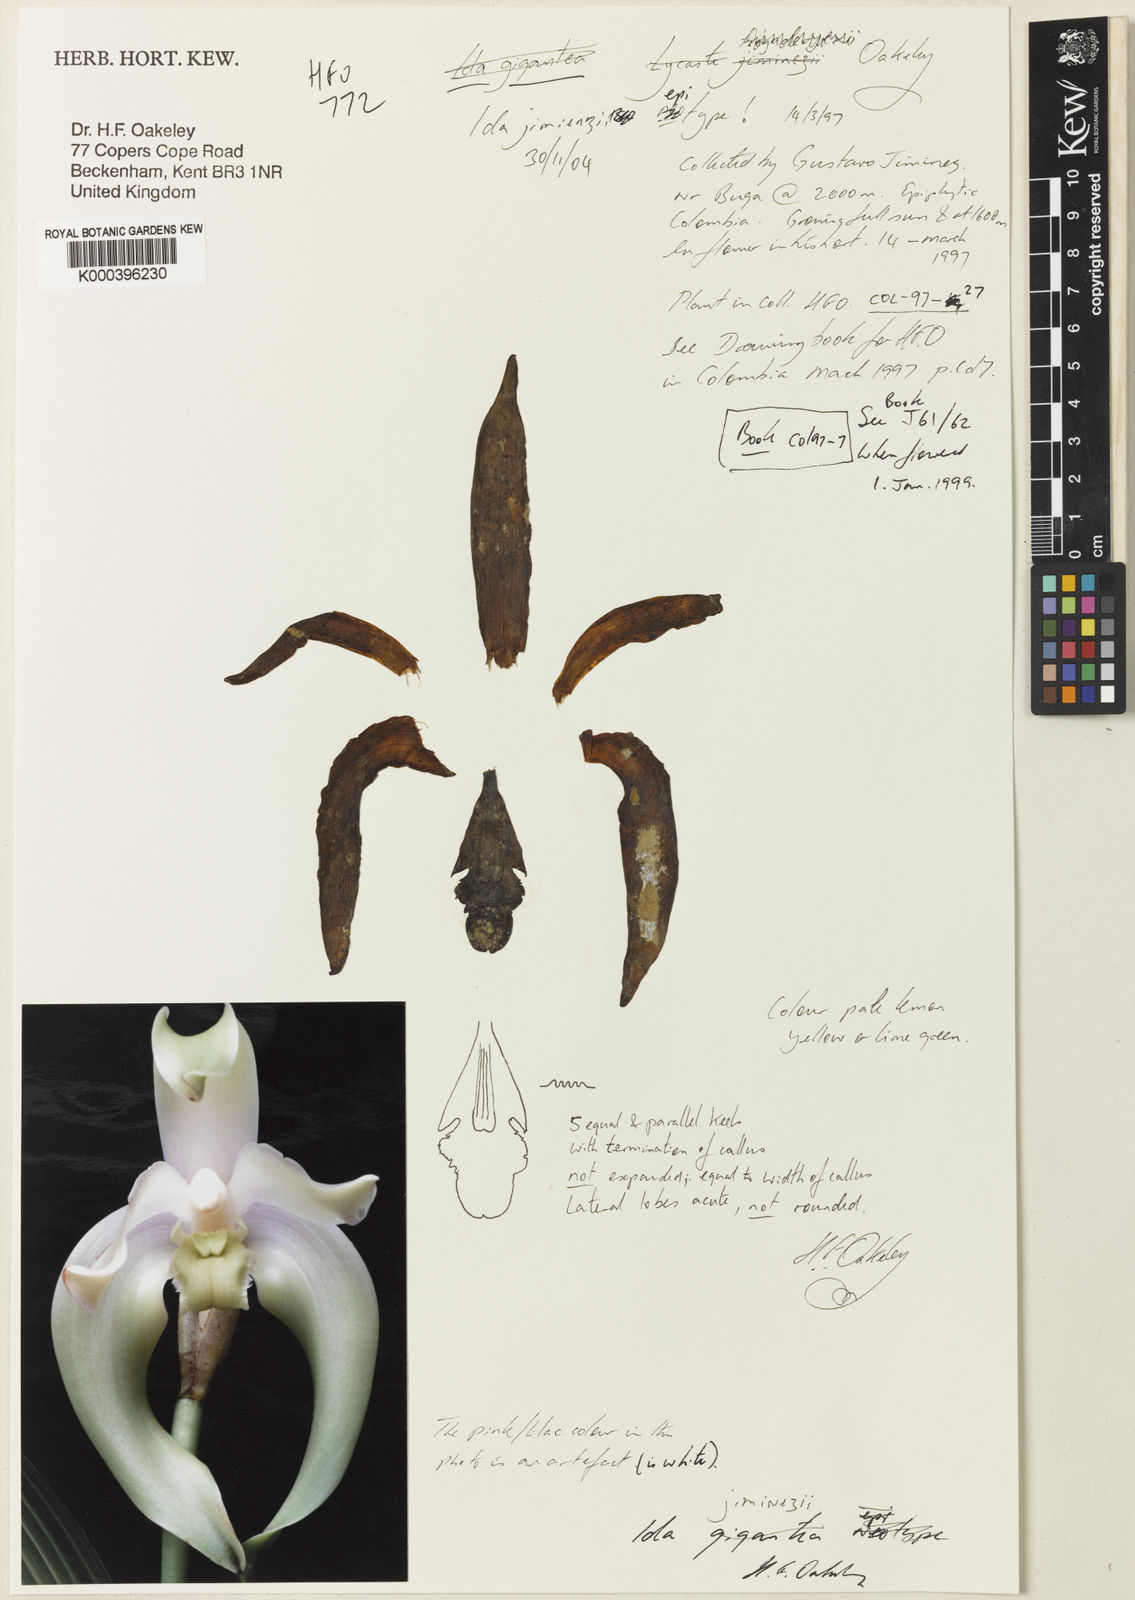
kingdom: Plantae
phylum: Tracheophyta
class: Liliopsida
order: Asparagales
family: Orchidaceae
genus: Ida
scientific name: Ida jimenezii
